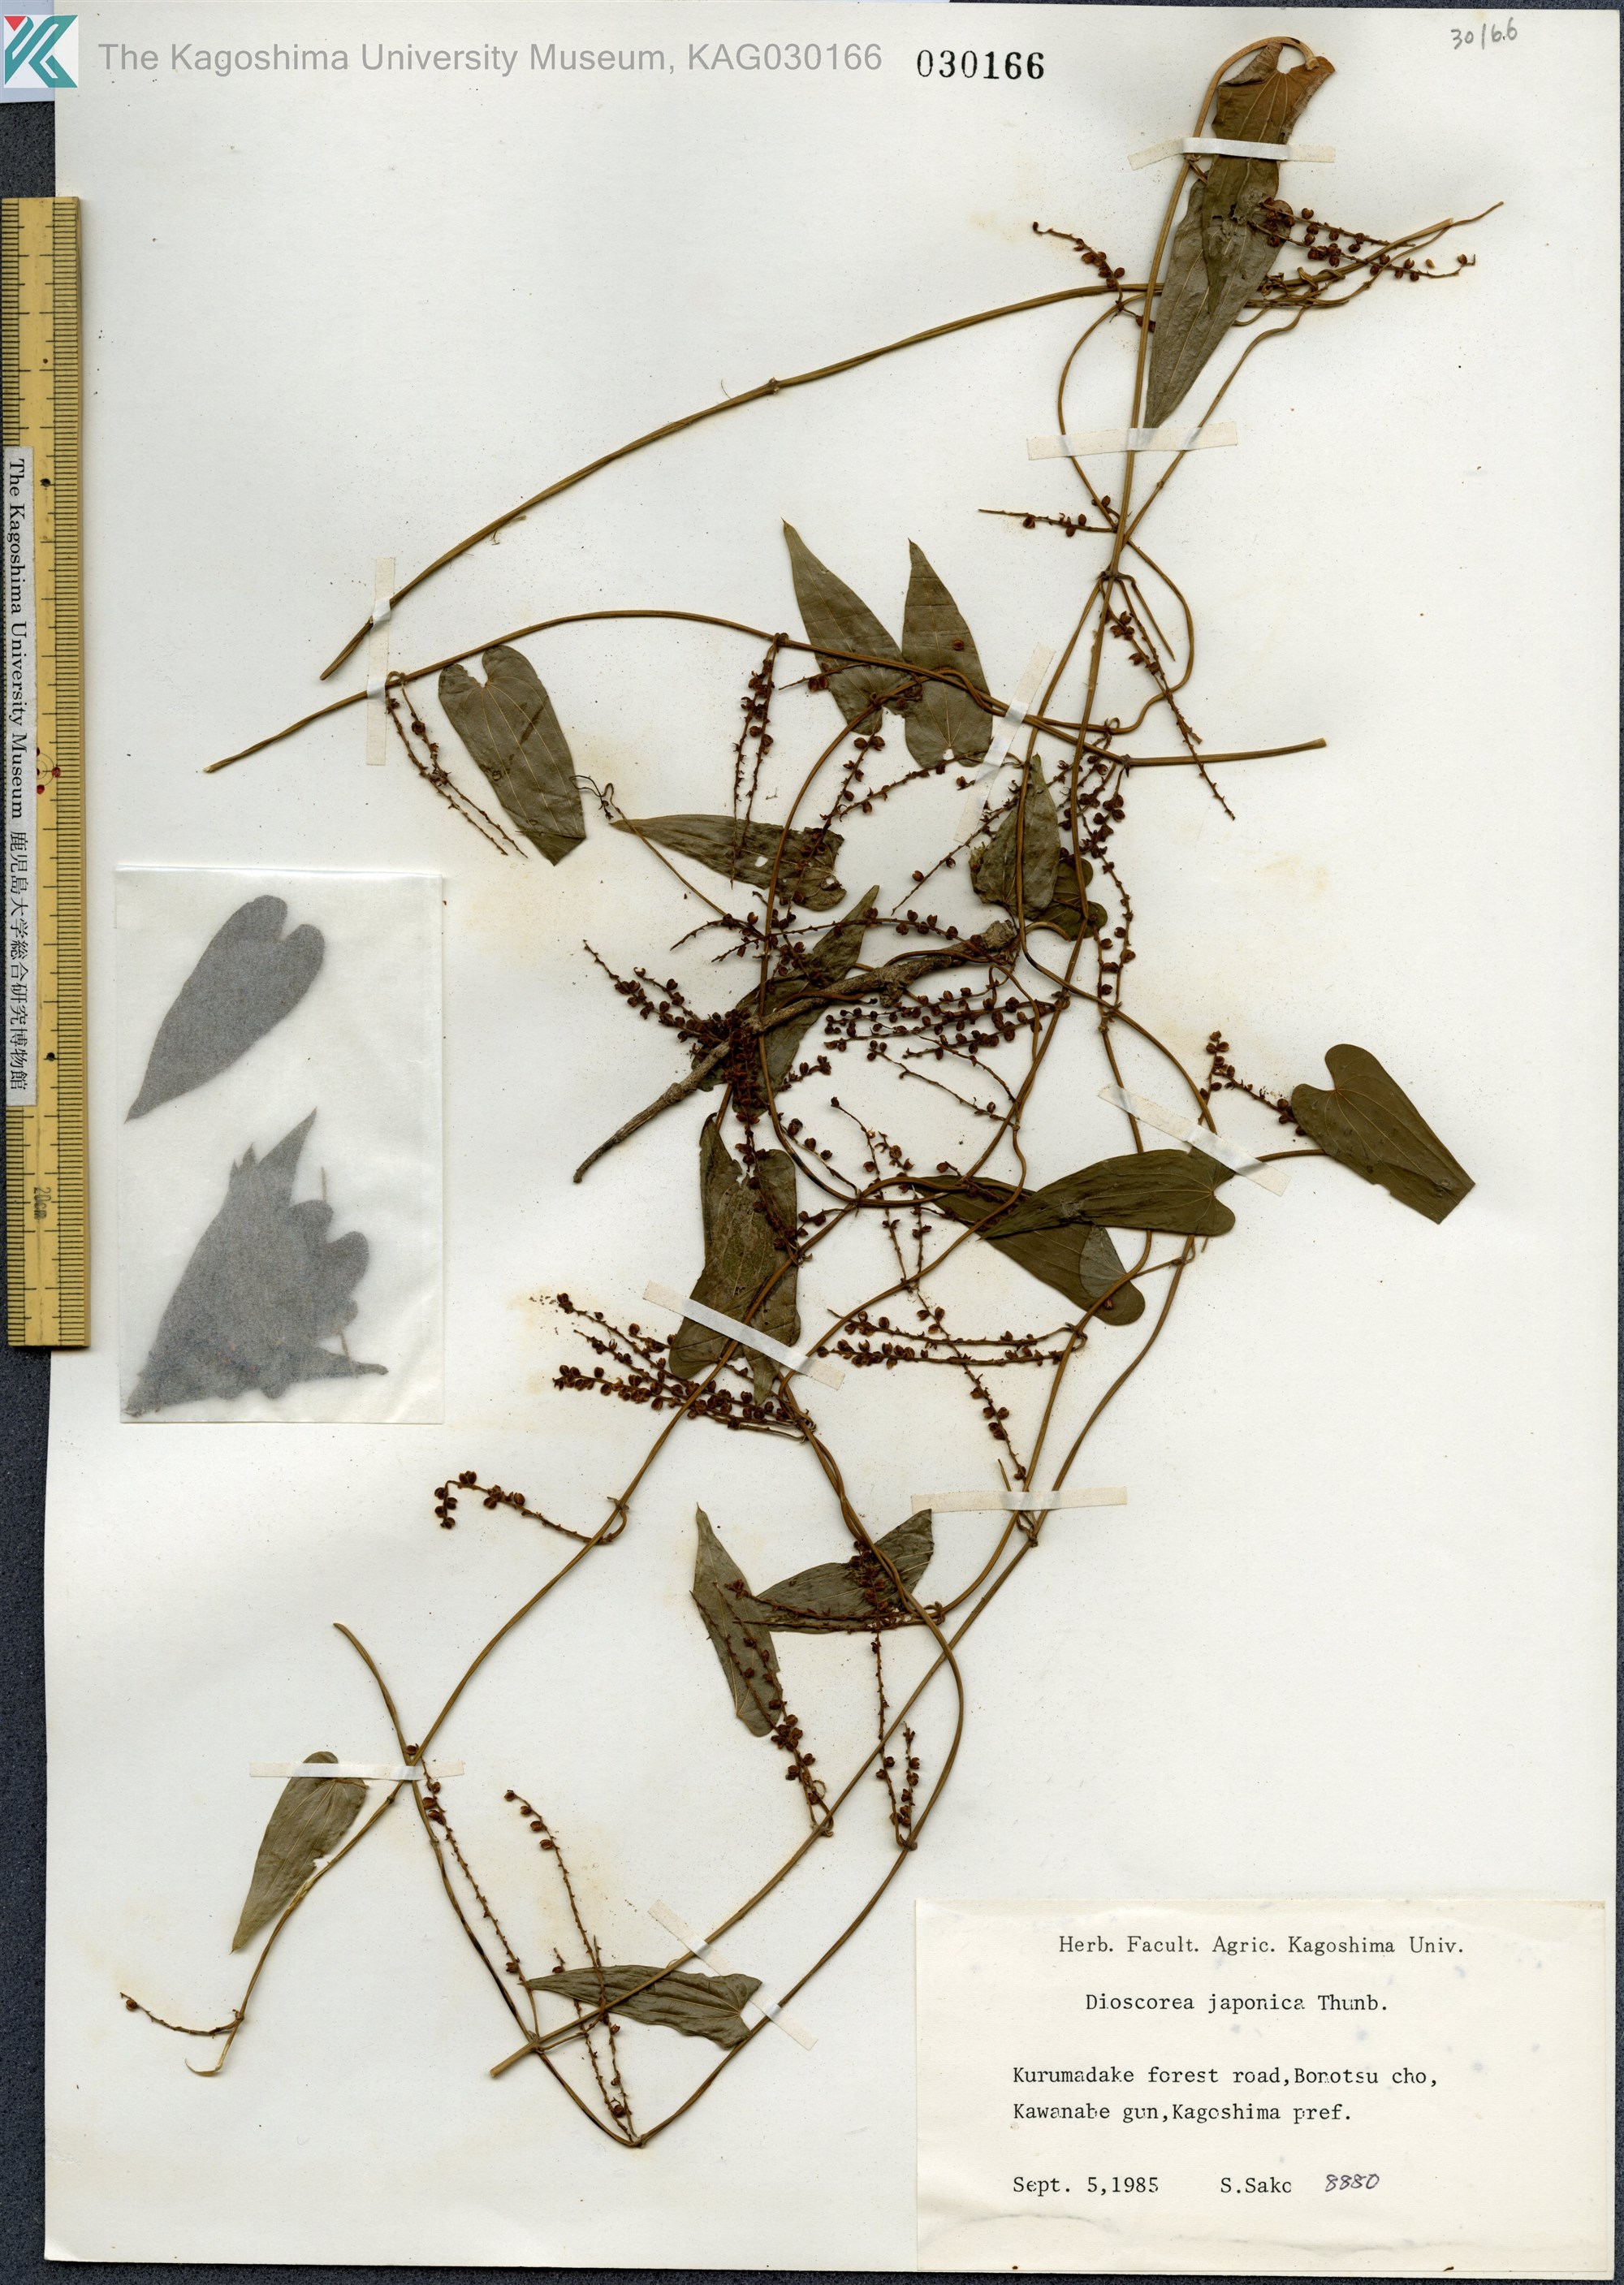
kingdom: Plantae
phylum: Tracheophyta
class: Liliopsida
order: Dioscoreales
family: Dioscoreaceae
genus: Dioscorea
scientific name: Dioscorea japonica
